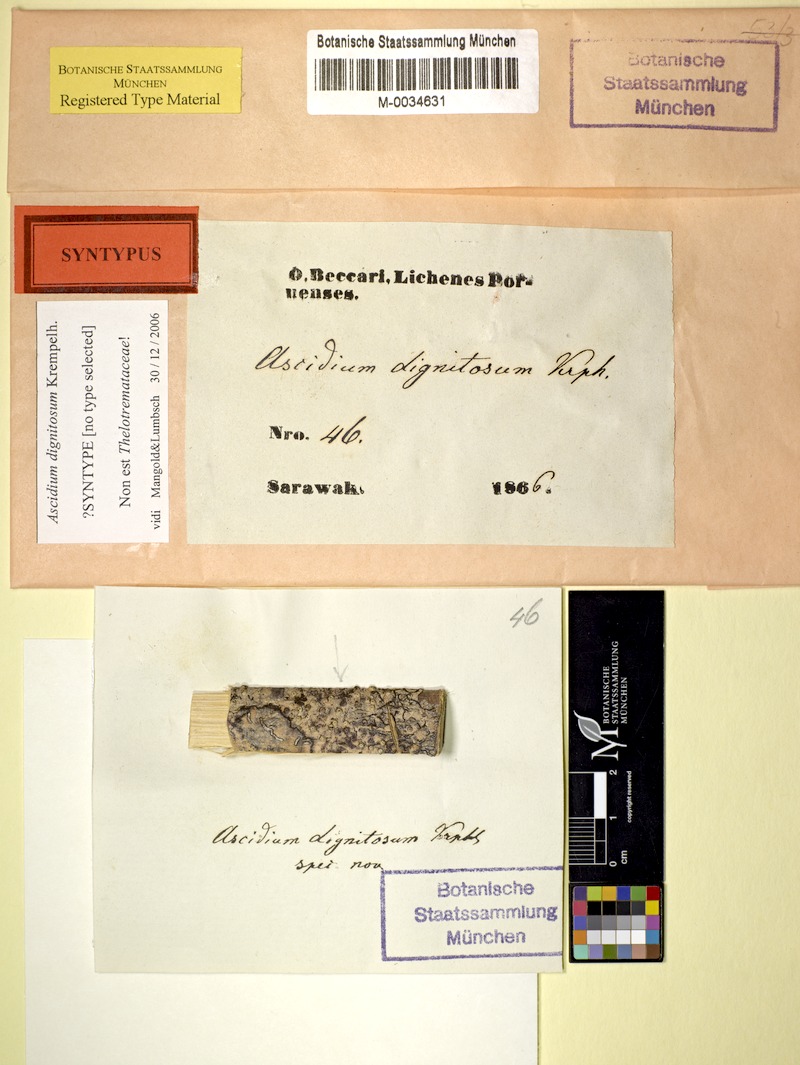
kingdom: Fungi
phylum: Ascomycota
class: Lecanoromycetes
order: Ostropales
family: Graphidaceae
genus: Thelotrema
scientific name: Thelotrema dignitosum
